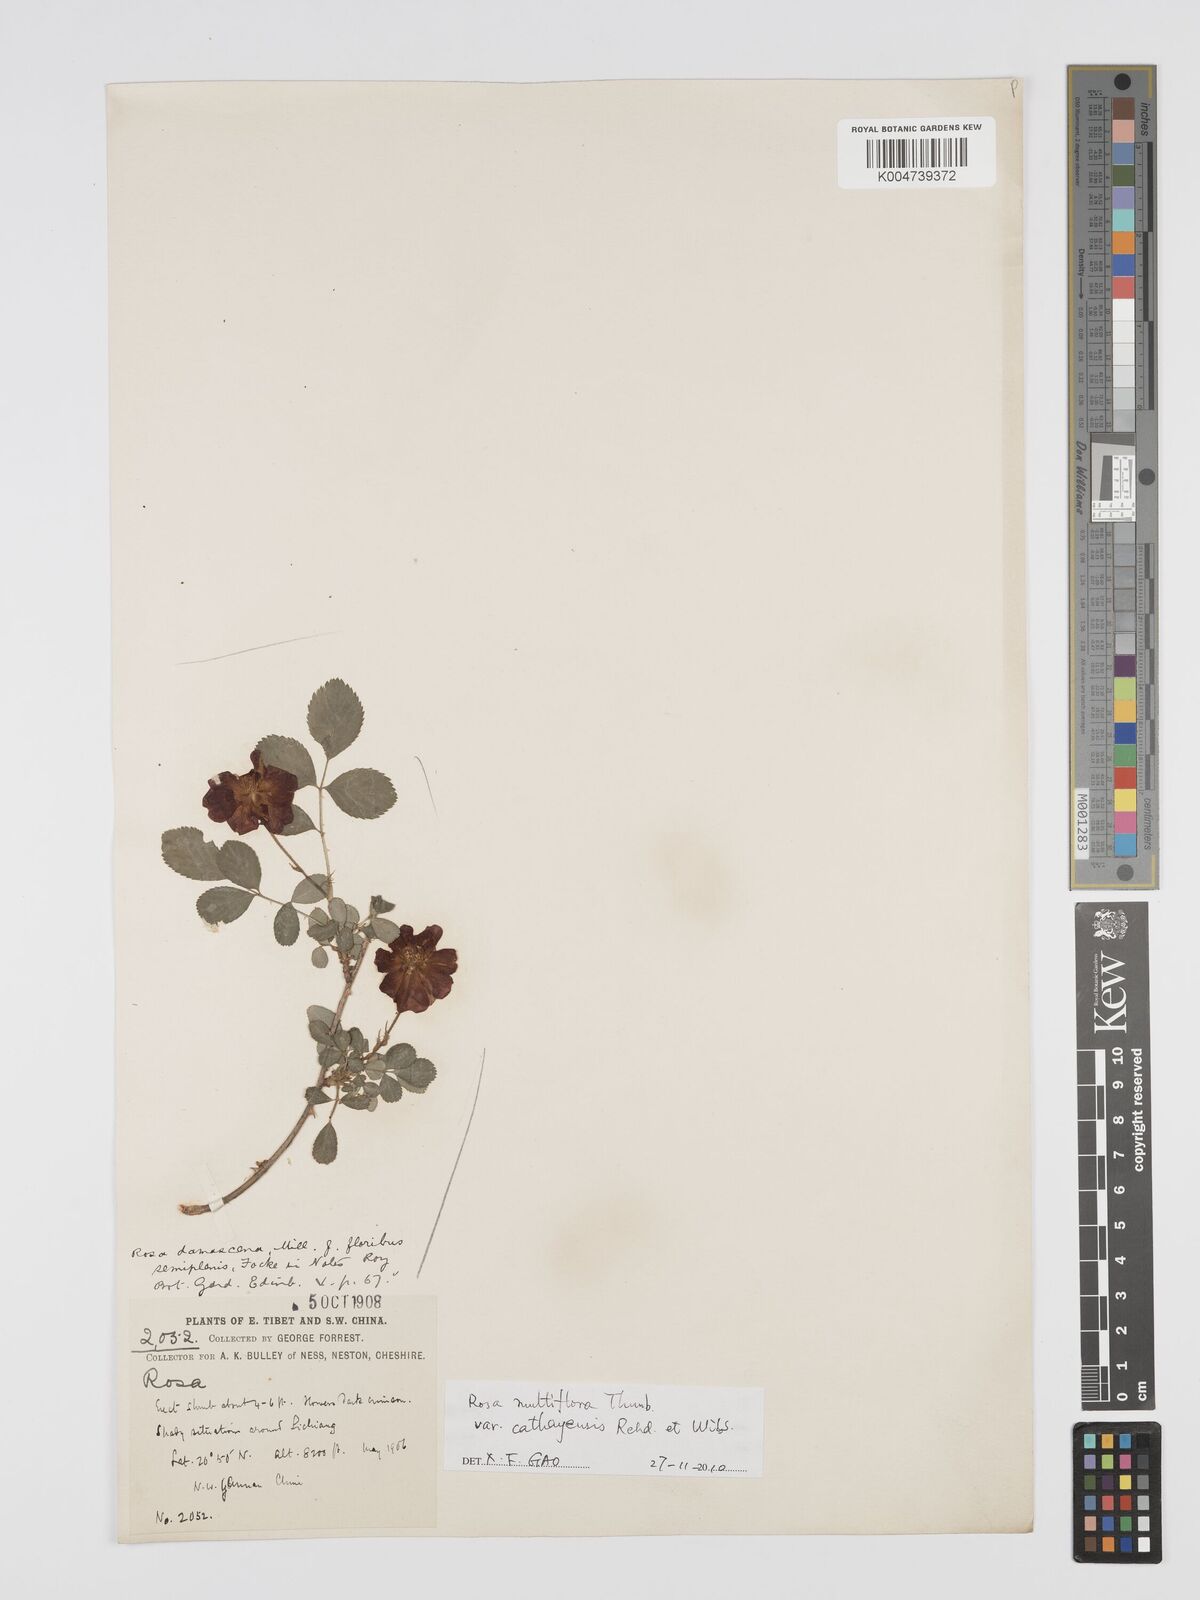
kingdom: Plantae
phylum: Tracheophyta
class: Magnoliopsida
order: Rosales
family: Rosaceae
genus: Rosa
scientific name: Rosa
